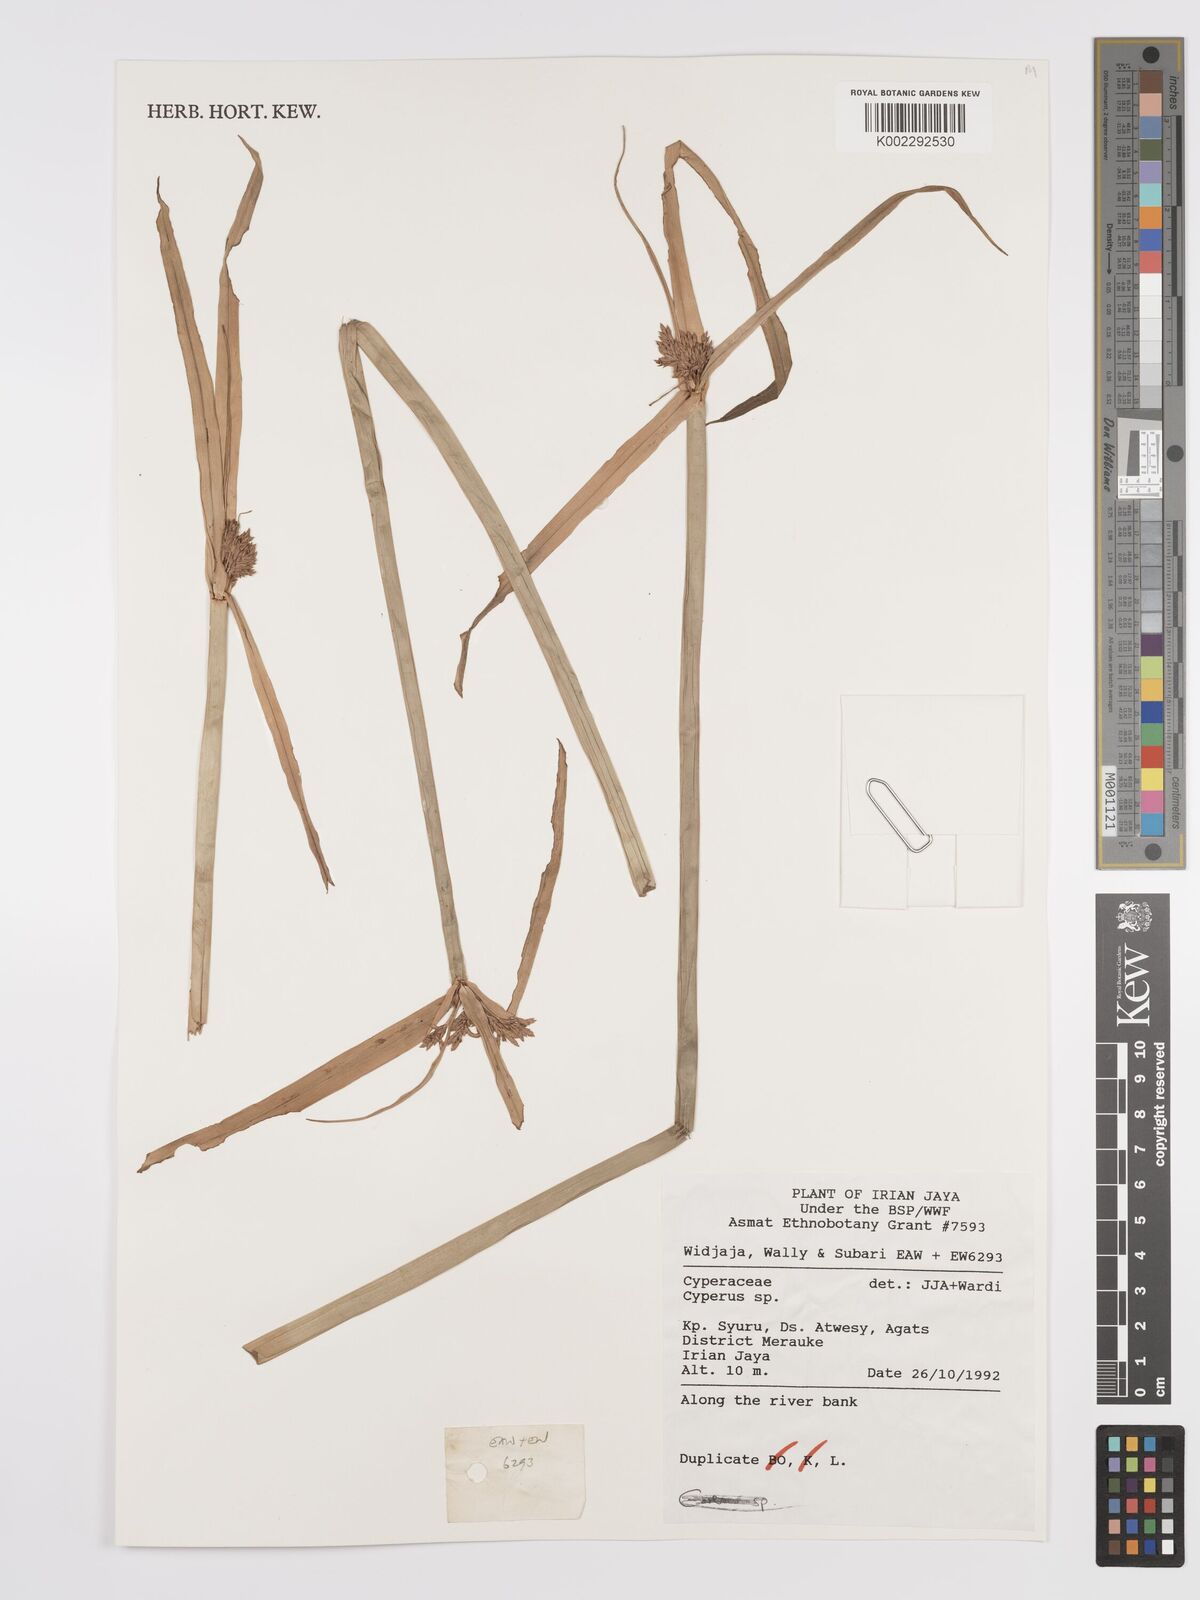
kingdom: Plantae
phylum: Tracheophyta
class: Liliopsida
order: Poales
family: Cyperaceae
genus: Cyperus
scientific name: Cyperus
